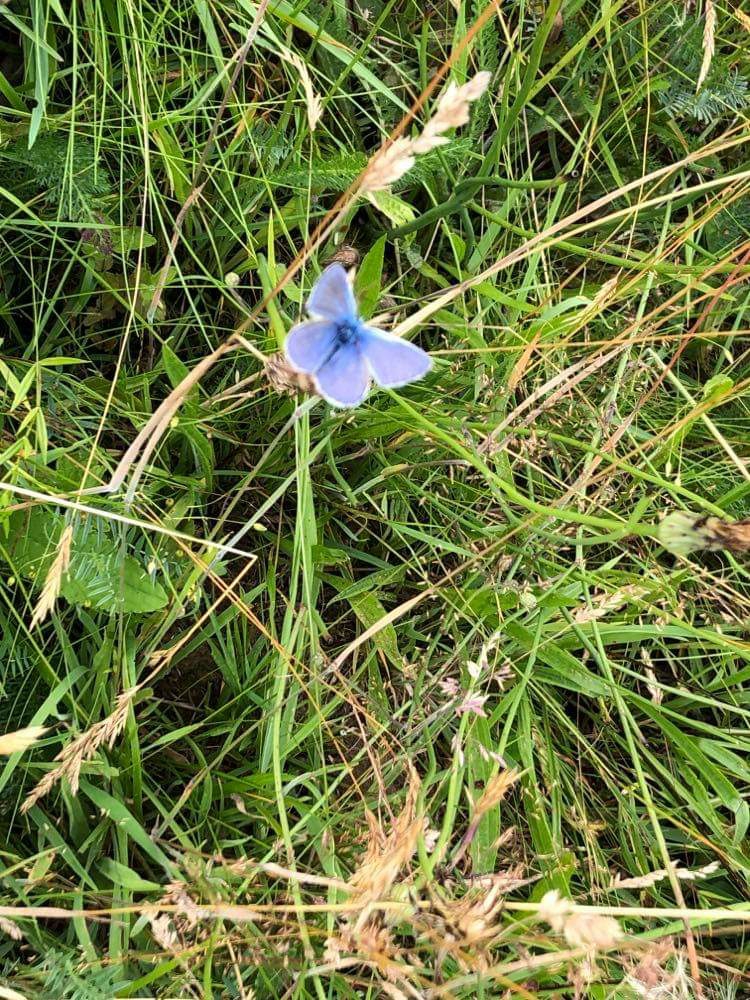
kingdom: Animalia
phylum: Arthropoda
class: Insecta
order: Lepidoptera
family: Lycaenidae
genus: Polyommatus
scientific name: Polyommatus icarus
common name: Almindelig blåfugl
